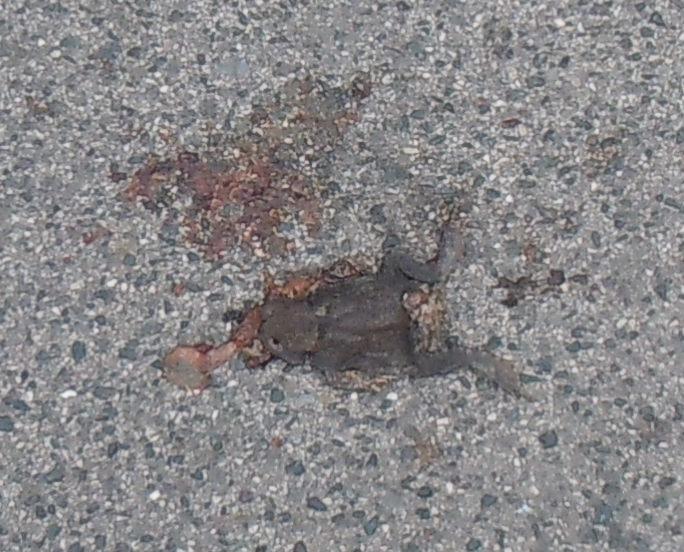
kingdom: Animalia
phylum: Chordata
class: Amphibia
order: Anura
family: Bufonidae
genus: Bufo
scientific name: Bufo bufo
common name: Common toad
